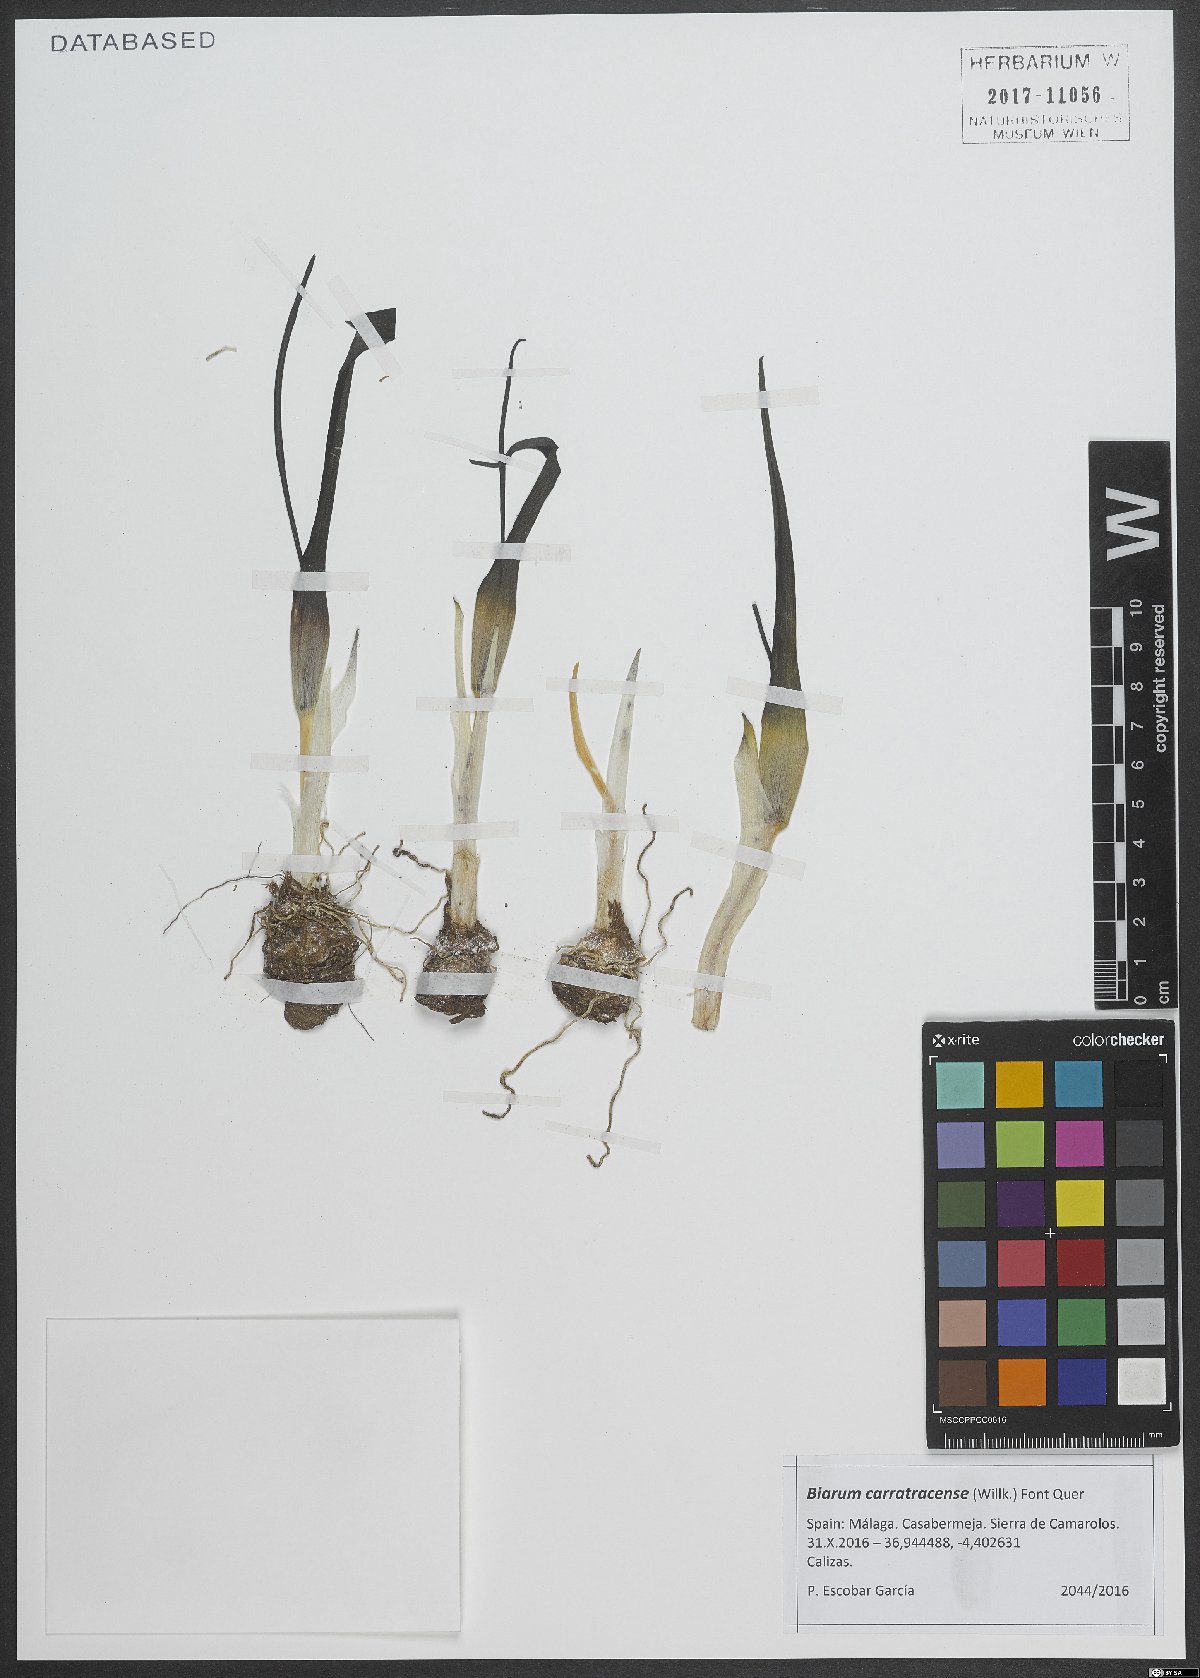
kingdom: Plantae
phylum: Tracheophyta
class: Liliopsida
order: Alismatales
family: Araceae
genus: Biarum
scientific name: Biarum carratracense
